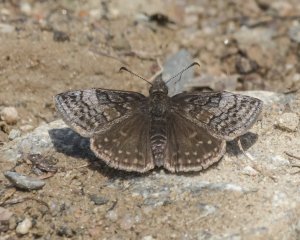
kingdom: Animalia
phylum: Arthropoda
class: Insecta
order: Lepidoptera
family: Hesperiidae
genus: Erynnis
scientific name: Erynnis icelus
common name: Dreamy Duskywing
